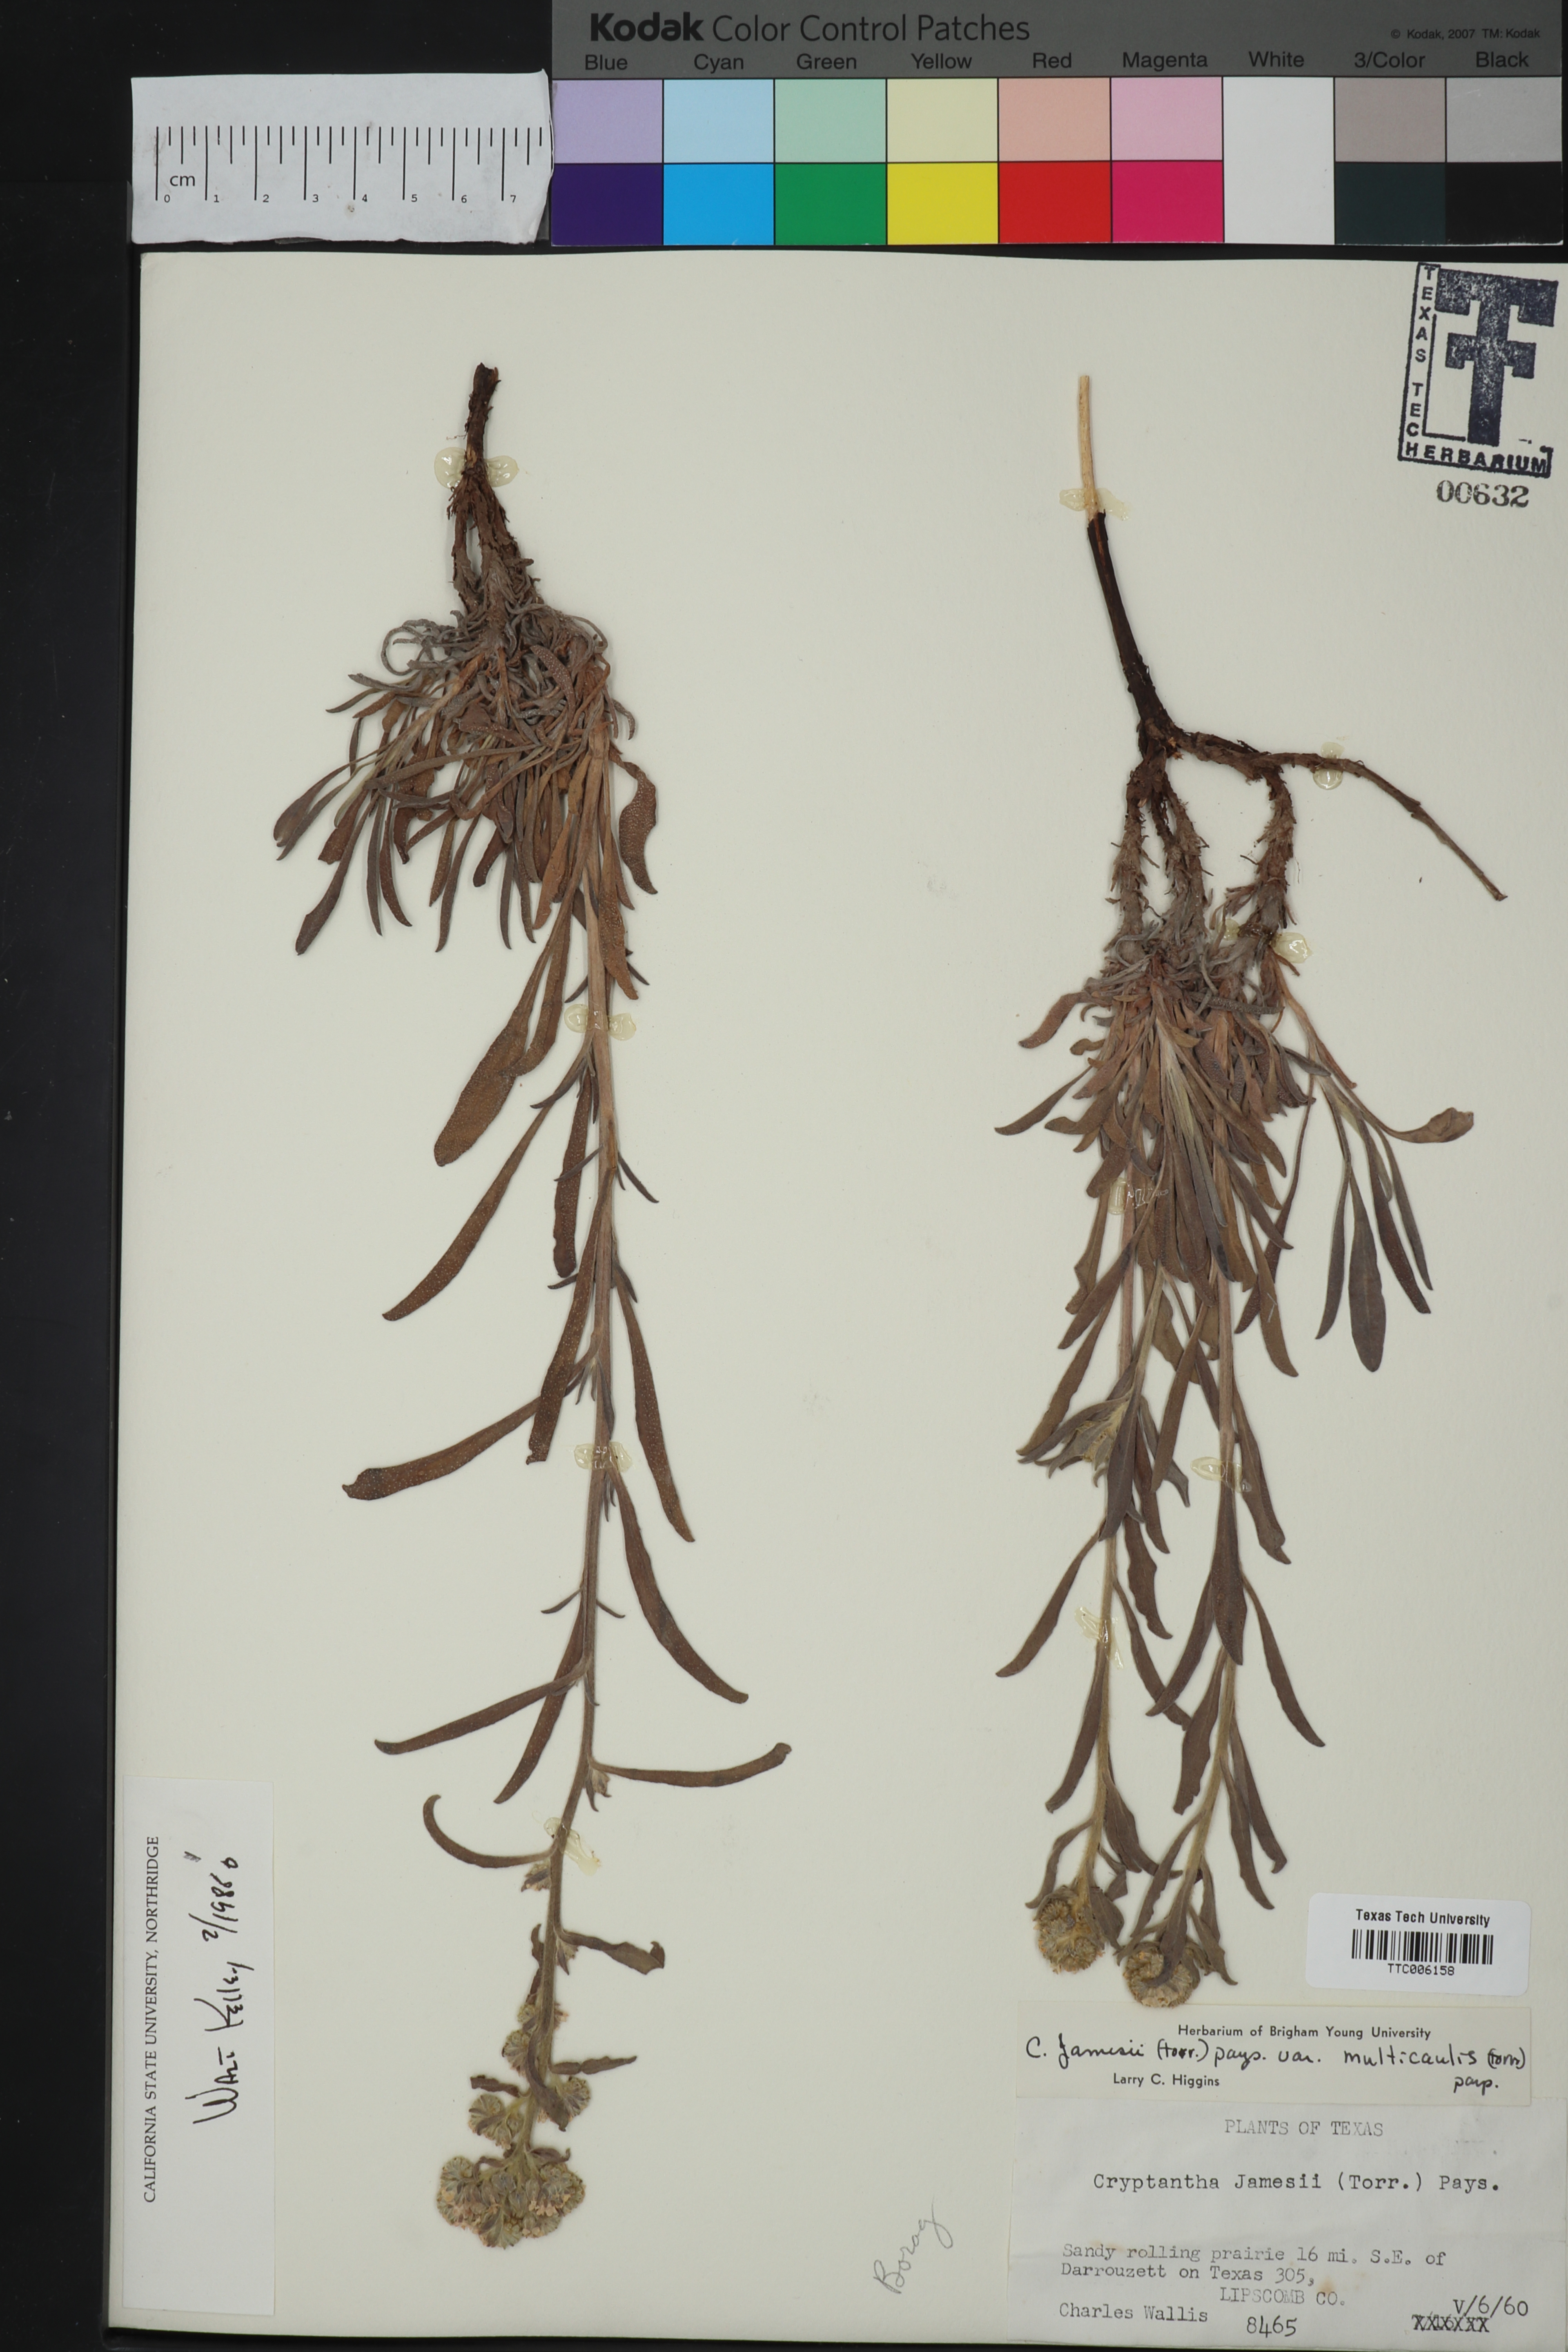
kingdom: Plantae
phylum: Tracheophyta
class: Magnoliopsida
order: Boraginales
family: Boraginaceae
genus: Oreocarya
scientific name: Oreocarya suffruticosa
